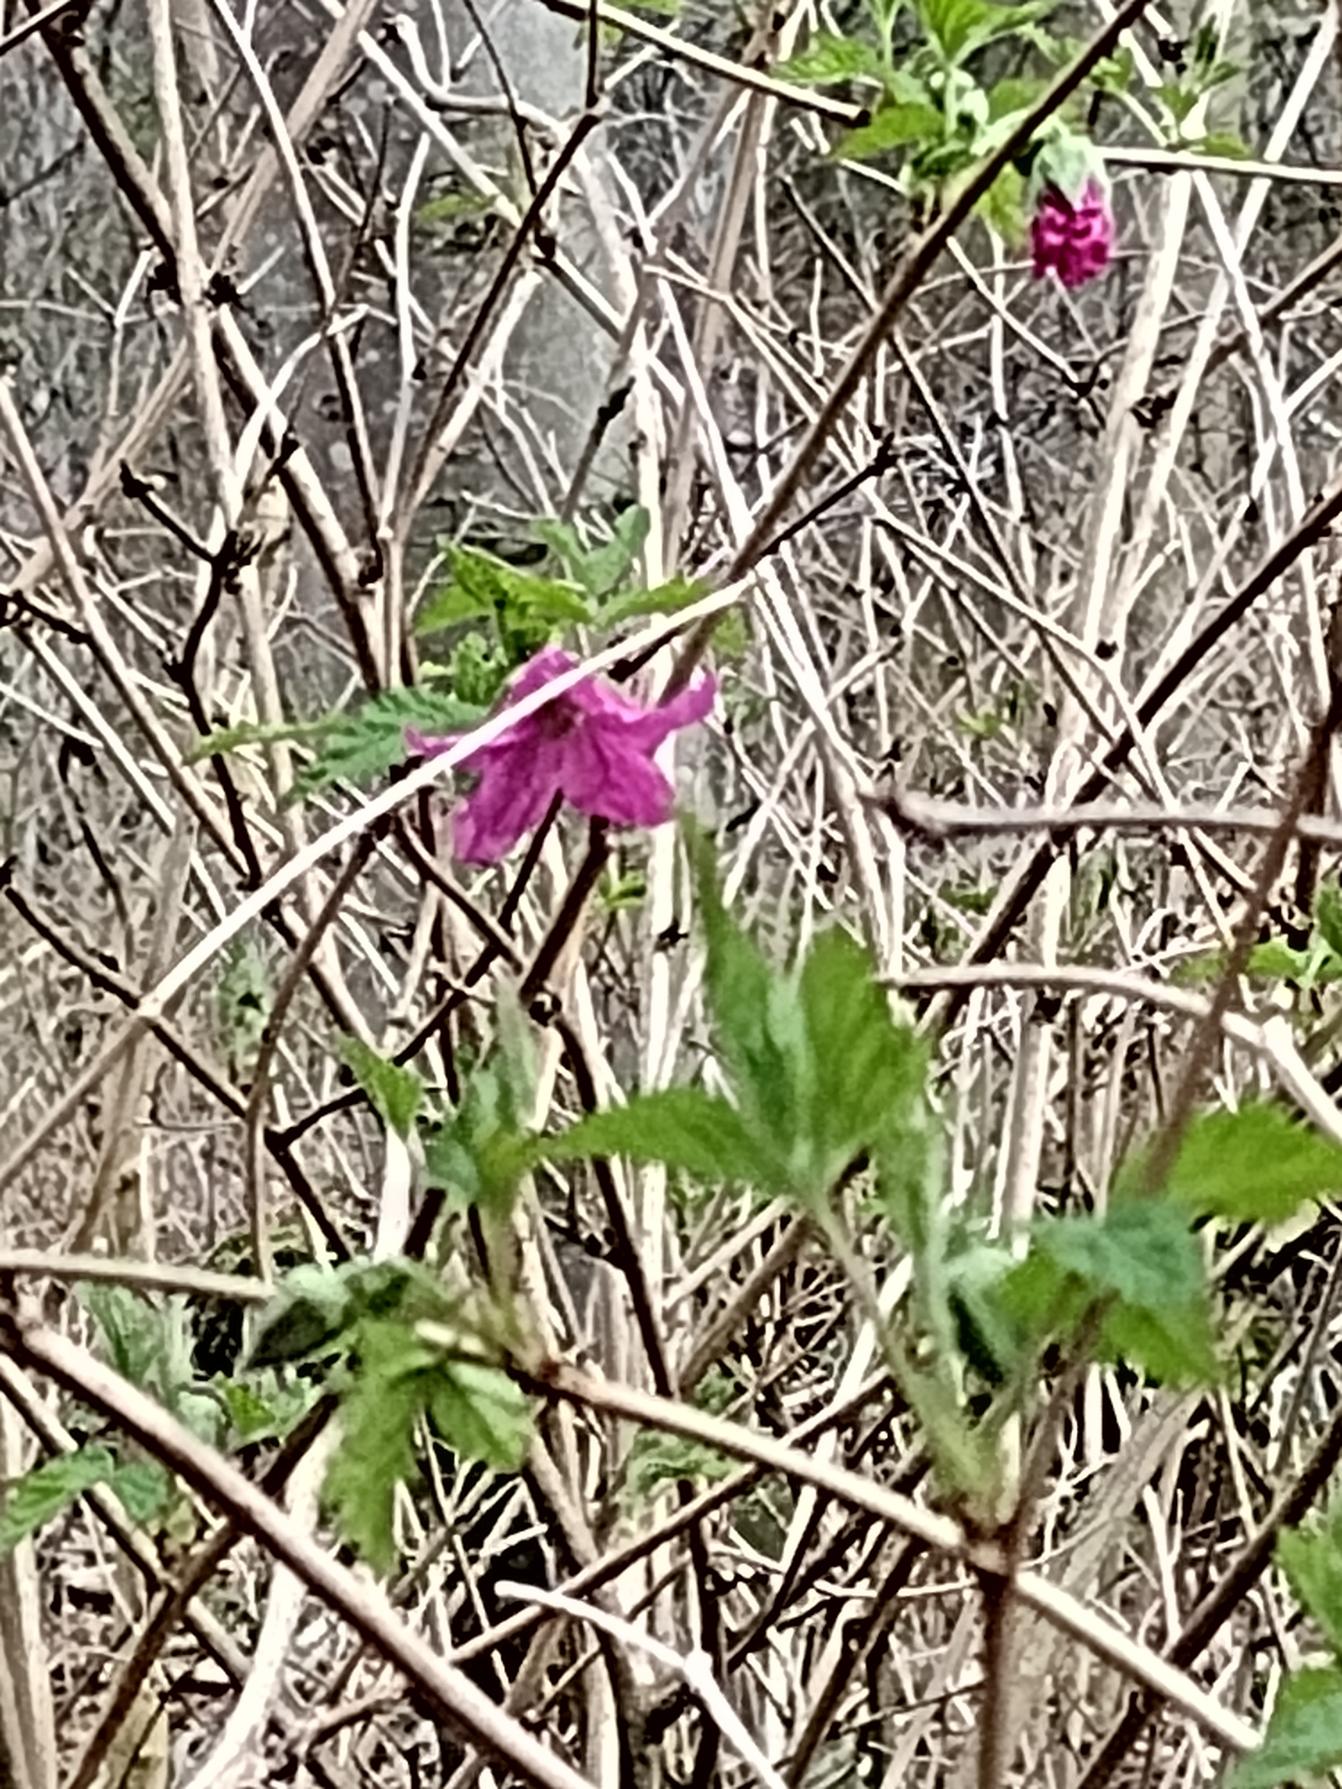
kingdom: Plantae
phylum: Tracheophyta
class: Magnoliopsida
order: Rosales
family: Rosaceae
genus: Rubus
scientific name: Rubus spectabilis
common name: Laksebær
